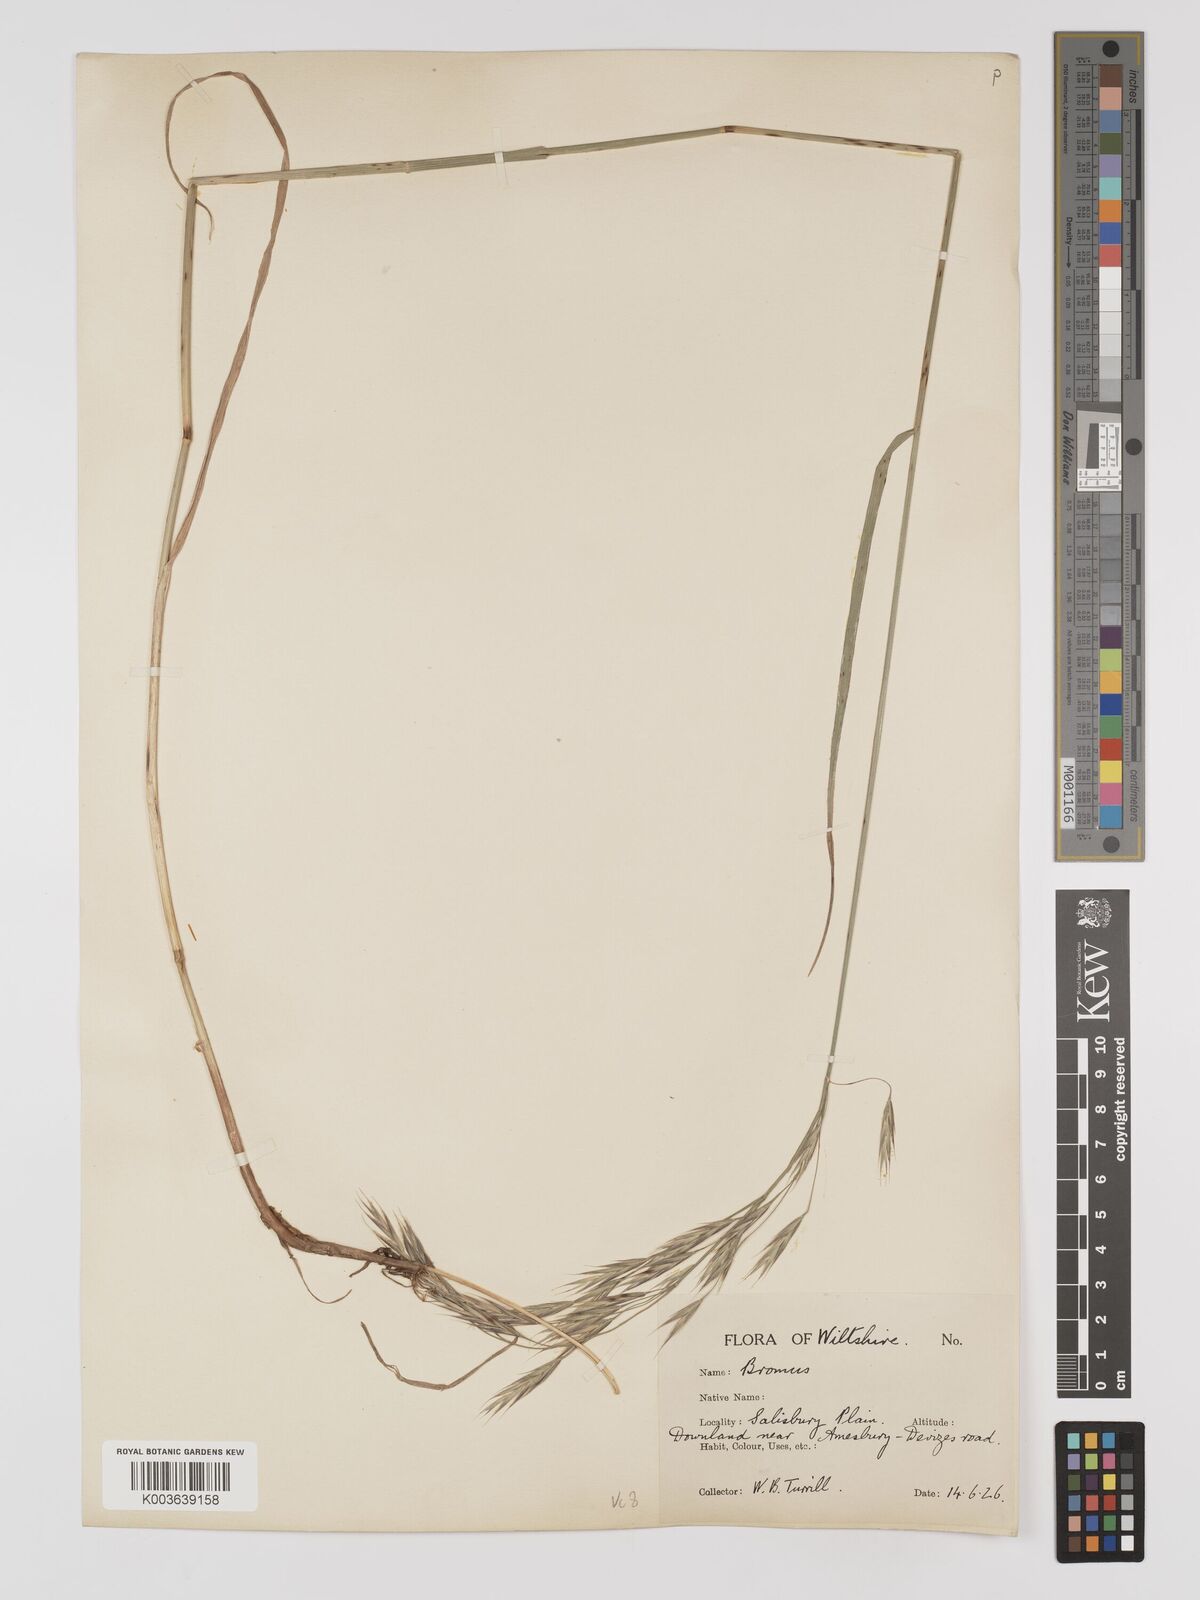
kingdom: Plantae
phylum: Tracheophyta
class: Liliopsida
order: Poales
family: Poaceae
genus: Bromus
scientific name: Bromus erectus
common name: Erect brome
